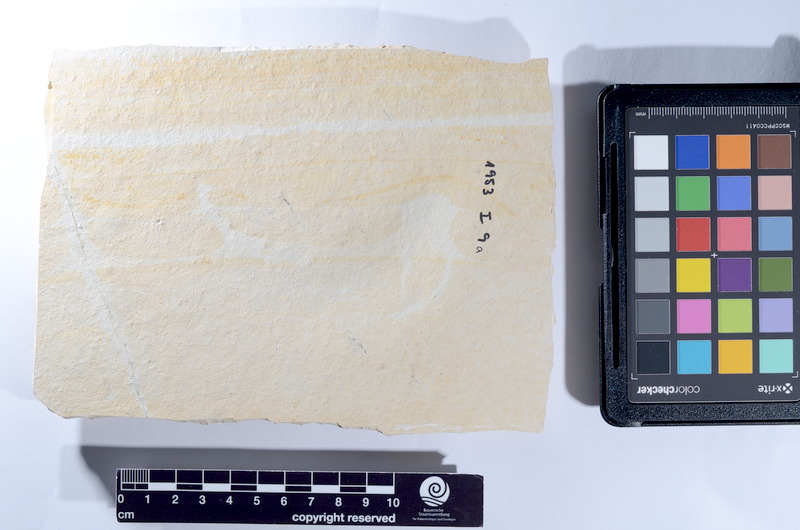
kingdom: Animalia
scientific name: Animalia
